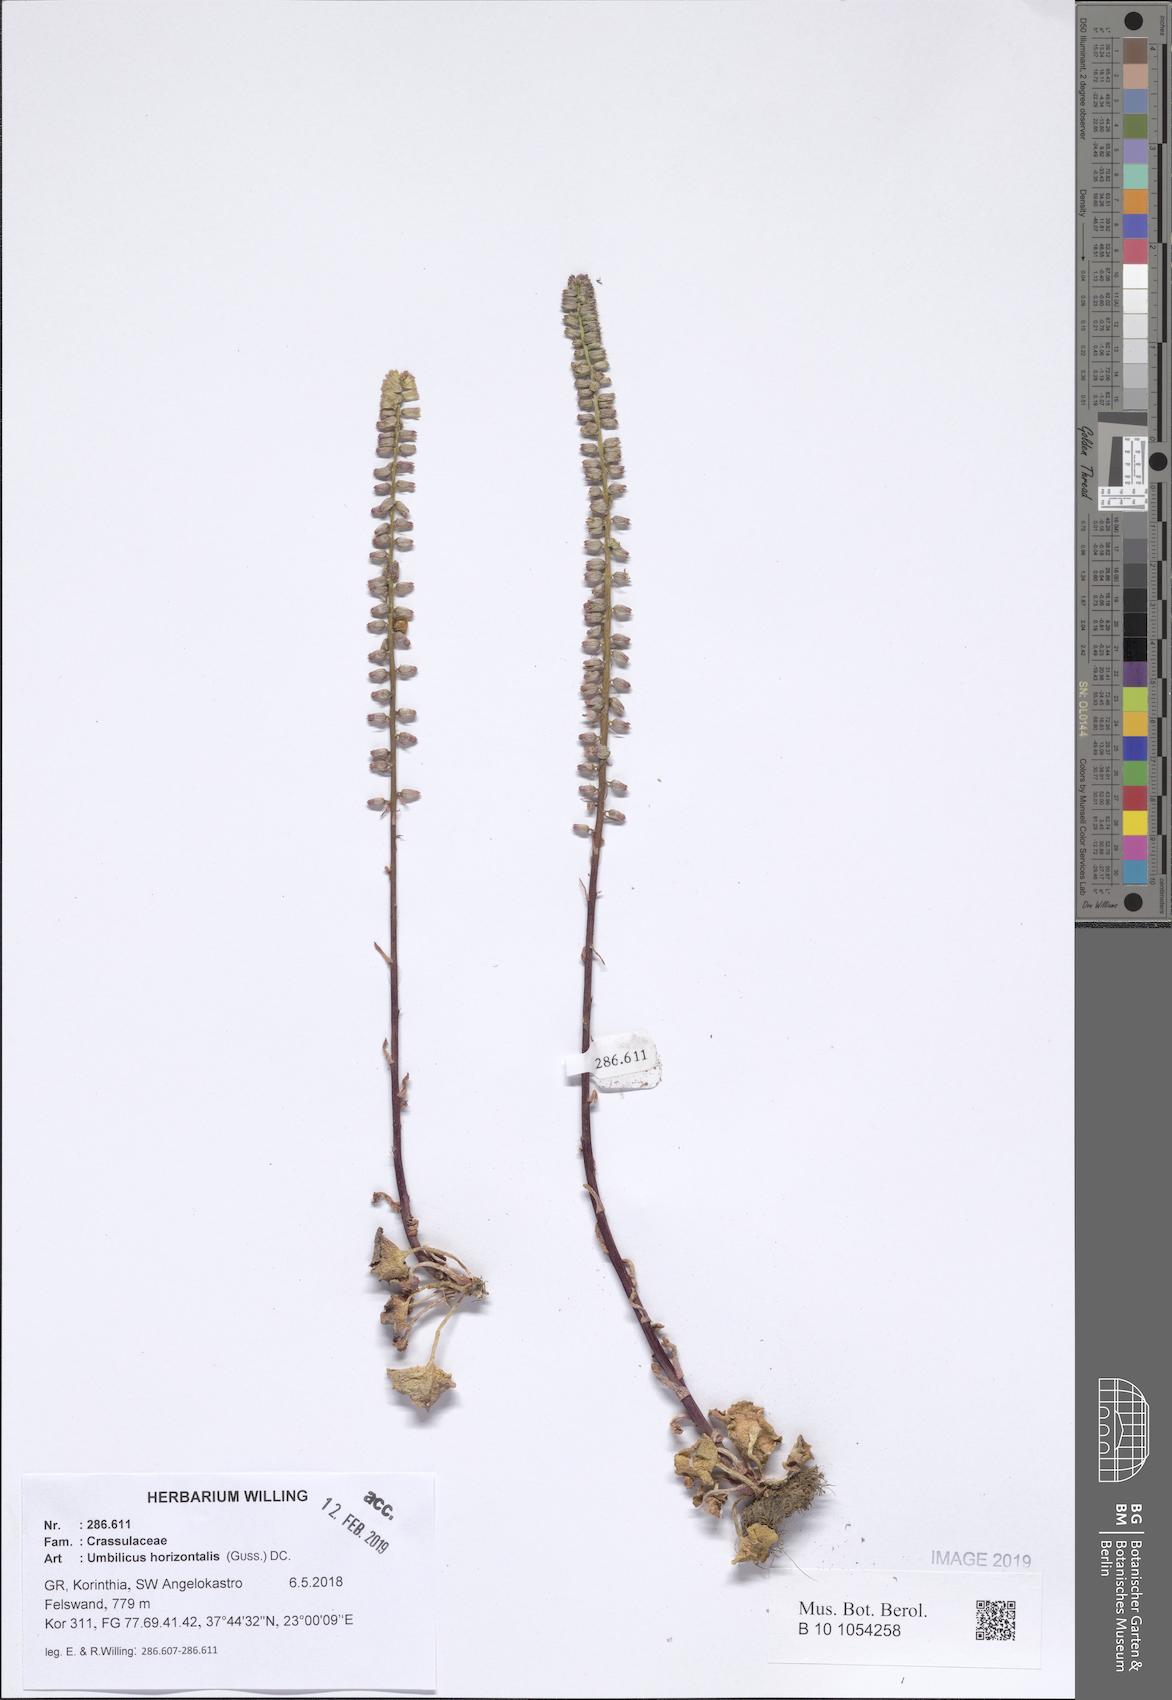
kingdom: Plantae
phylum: Tracheophyta
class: Magnoliopsida
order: Saxifragales
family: Crassulaceae
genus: Umbilicus
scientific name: Umbilicus horizontalis
